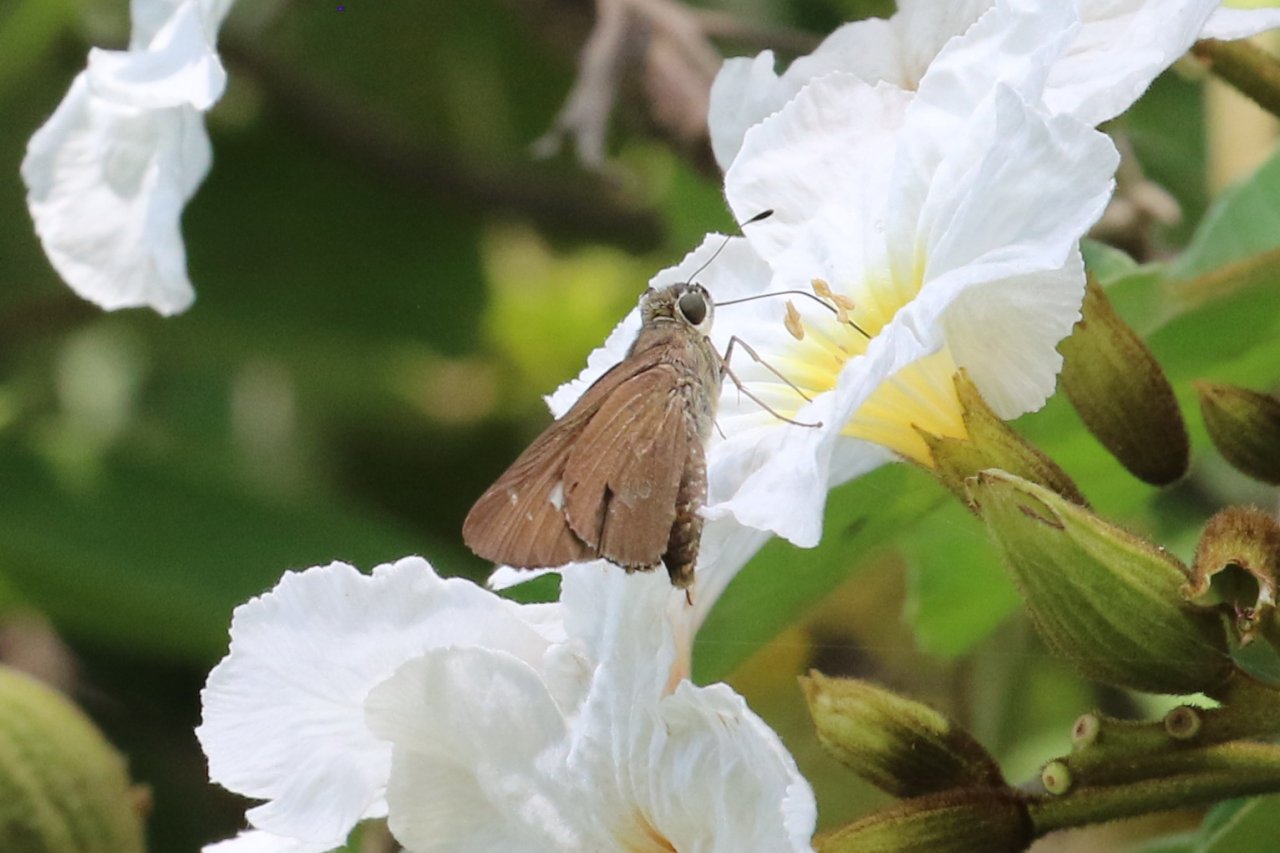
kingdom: Animalia
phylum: Arthropoda
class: Insecta
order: Lepidoptera
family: Hesperiidae
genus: Calpodes
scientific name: Calpodes ethlius
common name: Brazilian Skipper
